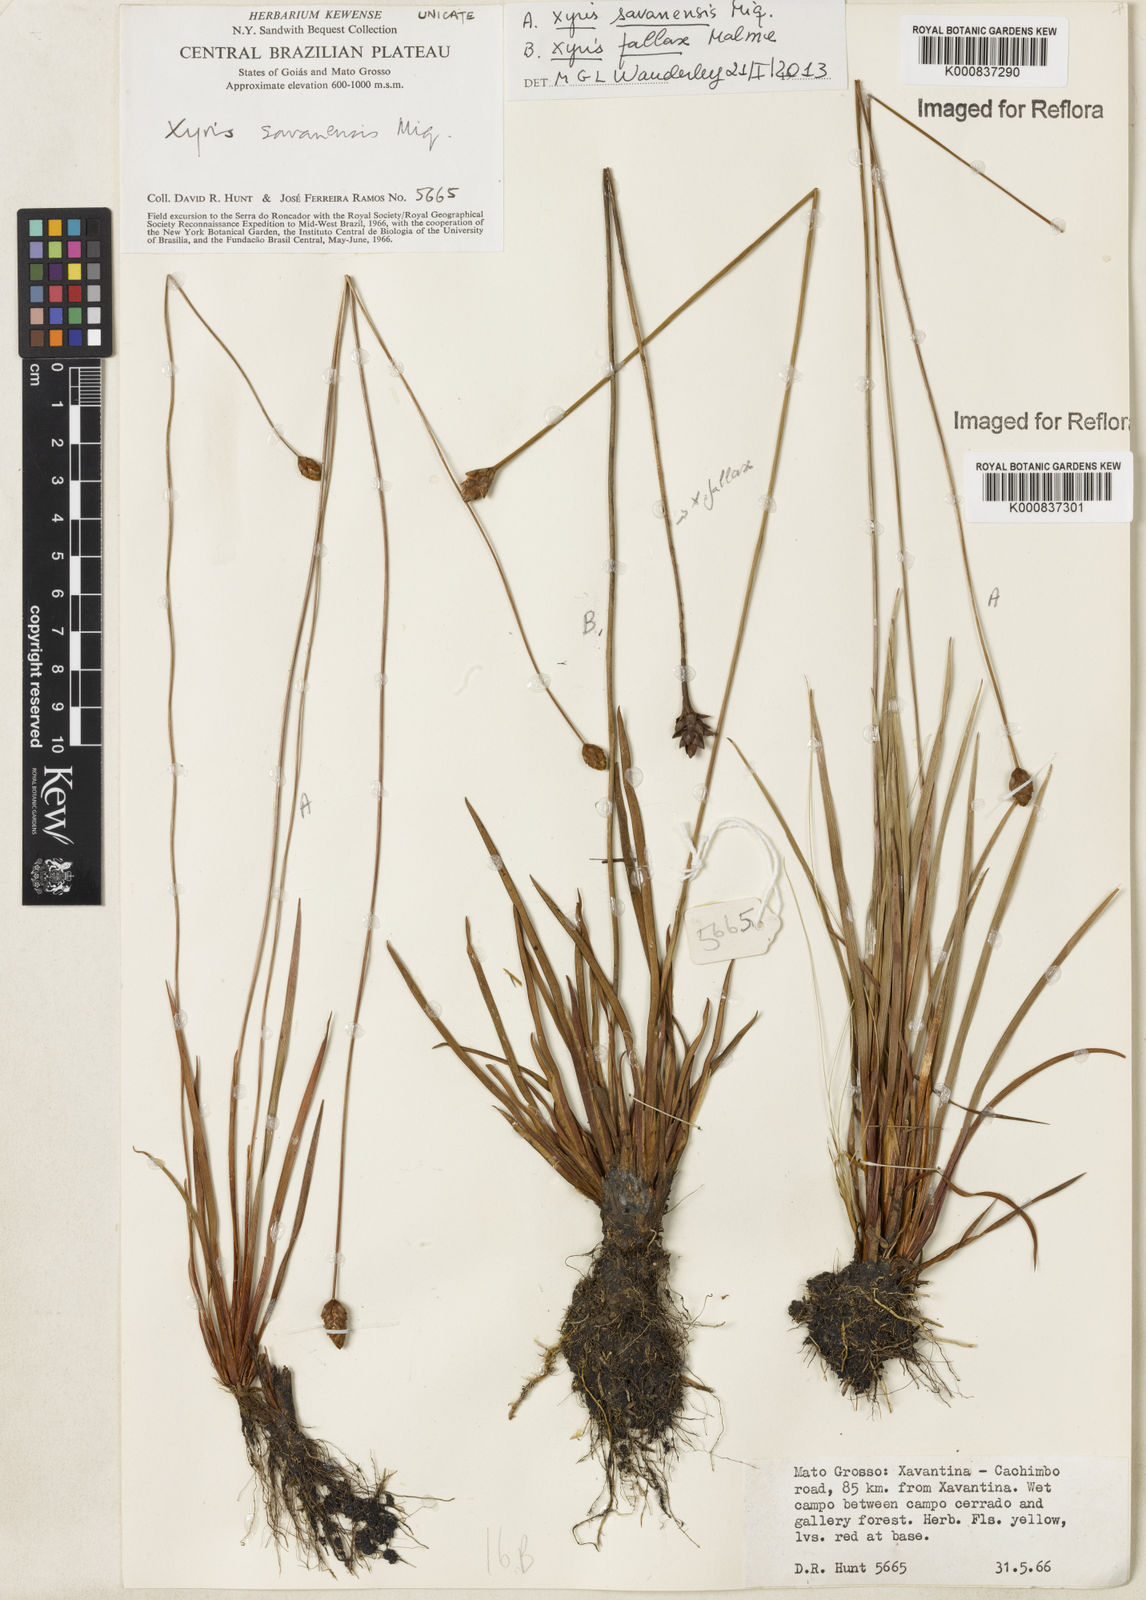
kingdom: Plantae
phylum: Tracheophyta
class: Liliopsida
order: Poales
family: Xyridaceae
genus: Xyris
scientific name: Xyris savanensis
